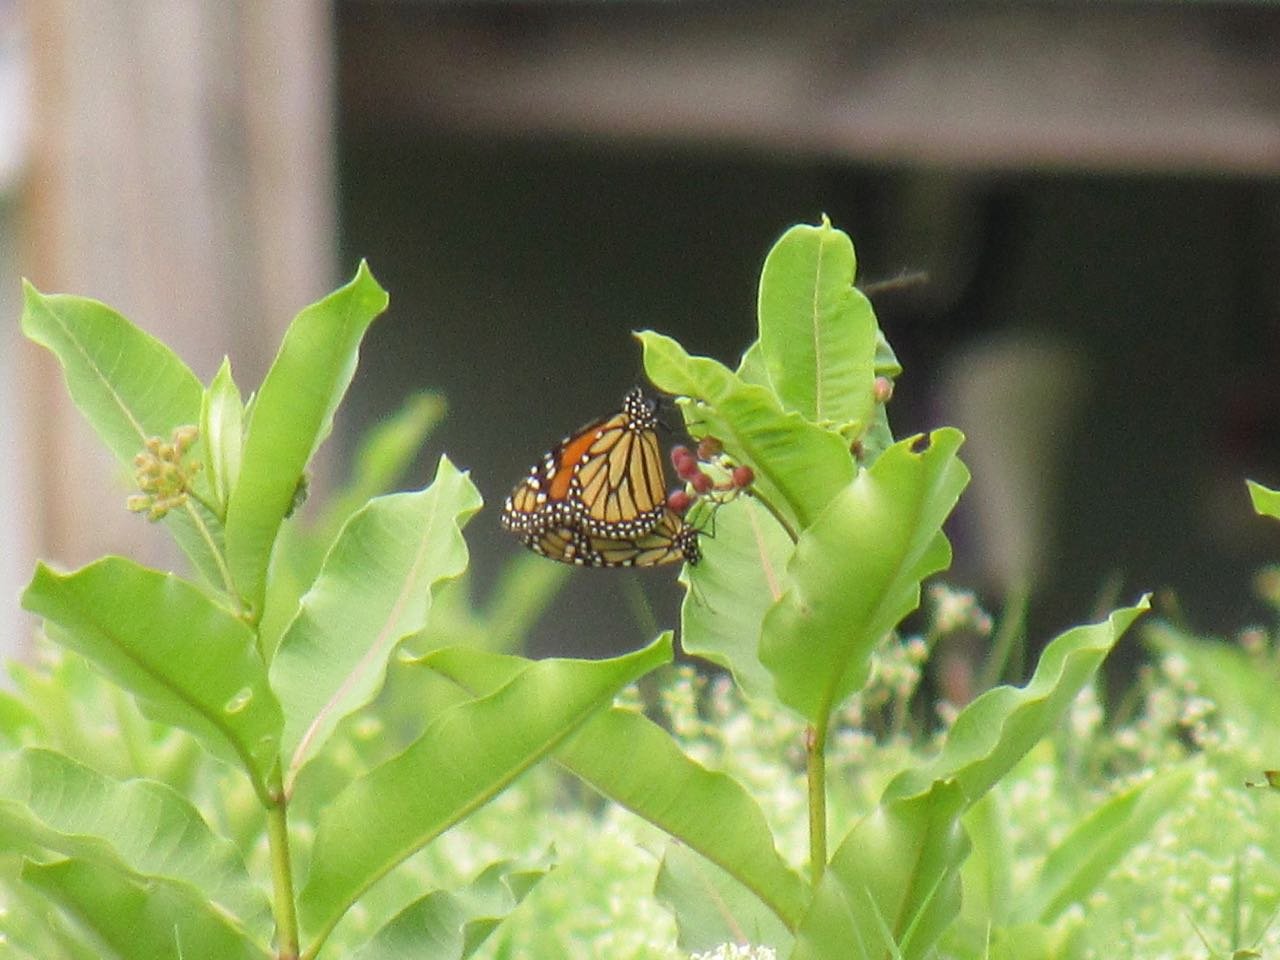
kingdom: Animalia
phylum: Arthropoda
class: Insecta
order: Lepidoptera
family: Nymphalidae
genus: Danaus
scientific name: Danaus plexippus
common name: Monarch
